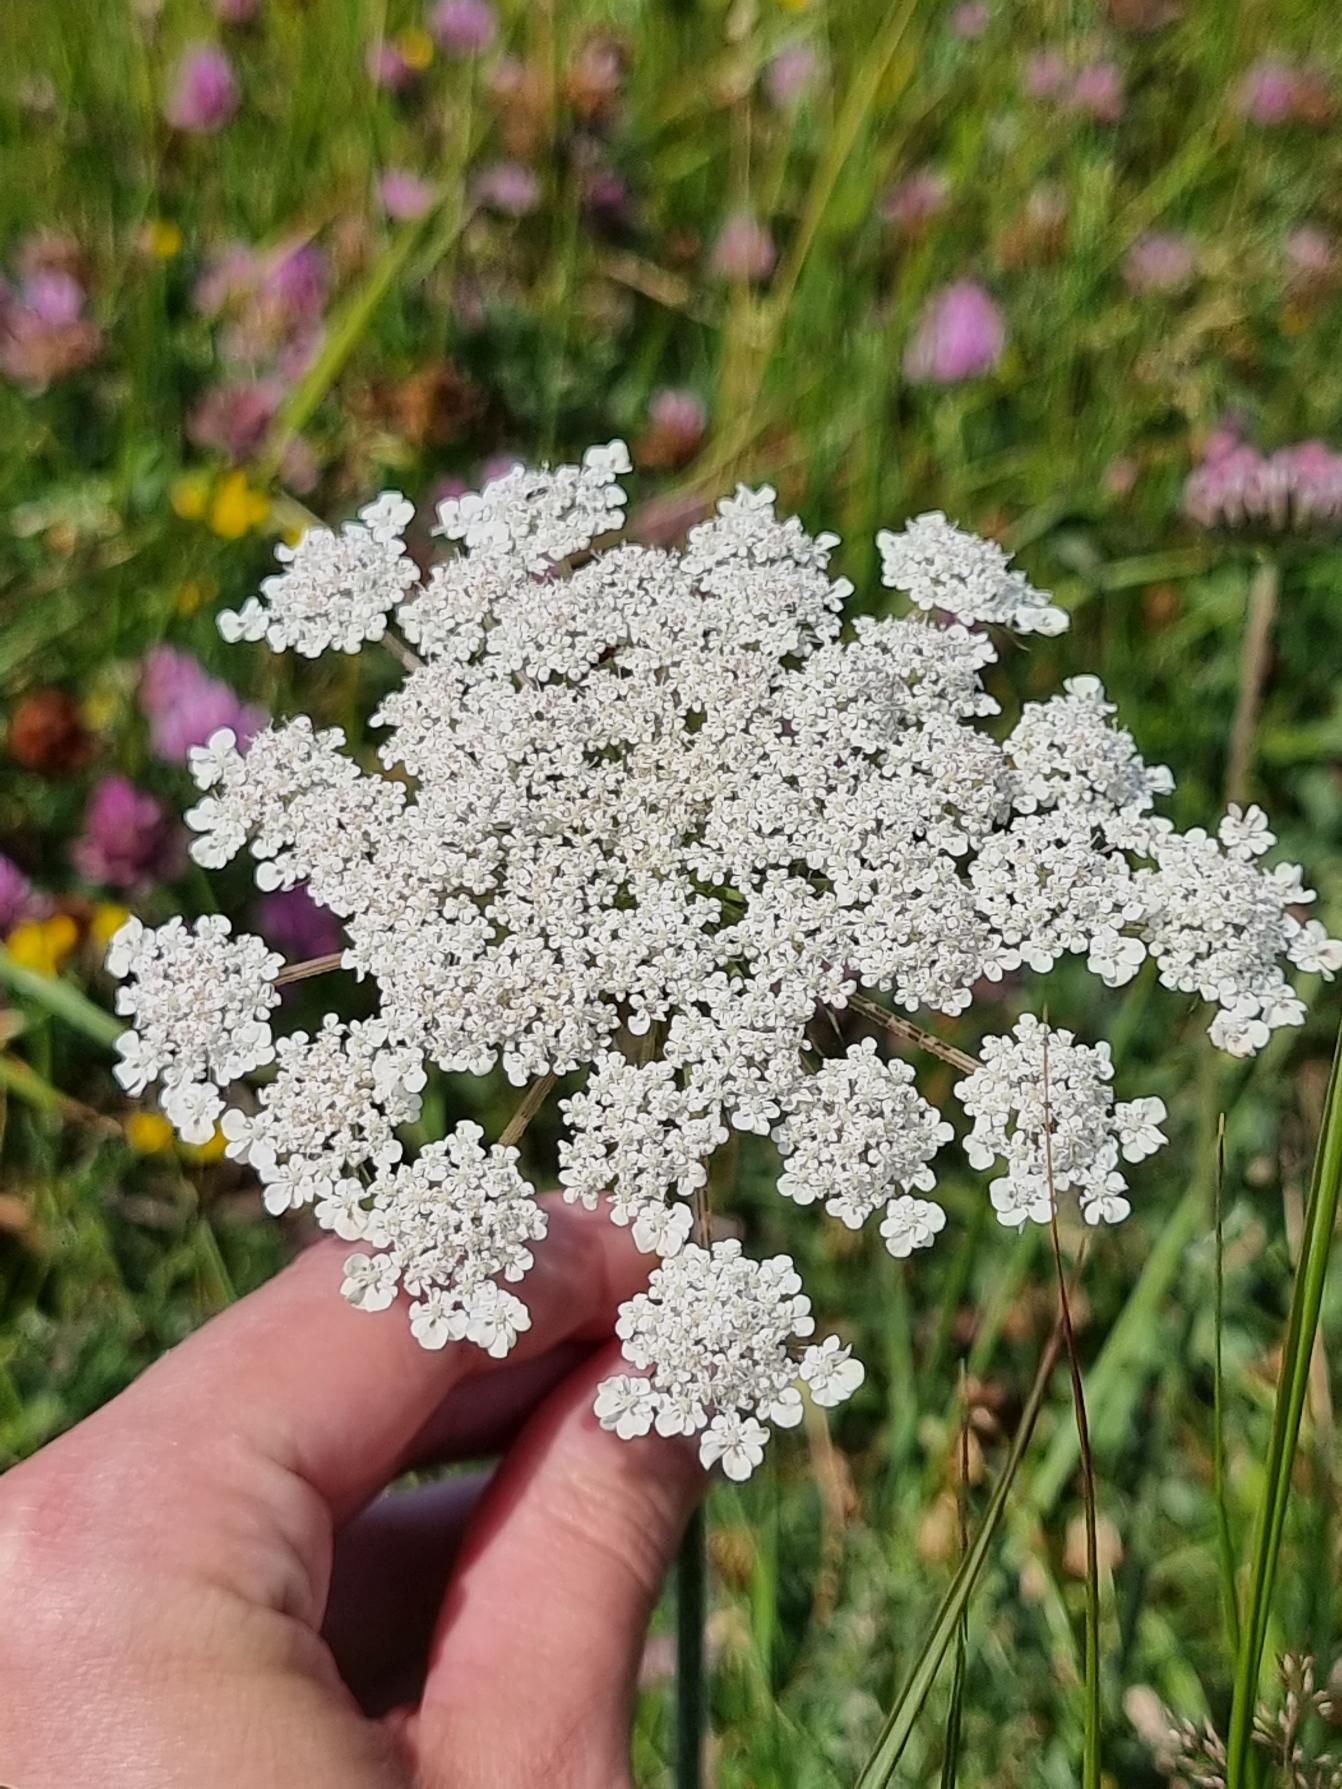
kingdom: Plantae
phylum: Tracheophyta
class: Magnoliopsida
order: Apiales
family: Apiaceae
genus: Daucus
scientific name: Daucus carota
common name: Vild gulerod
